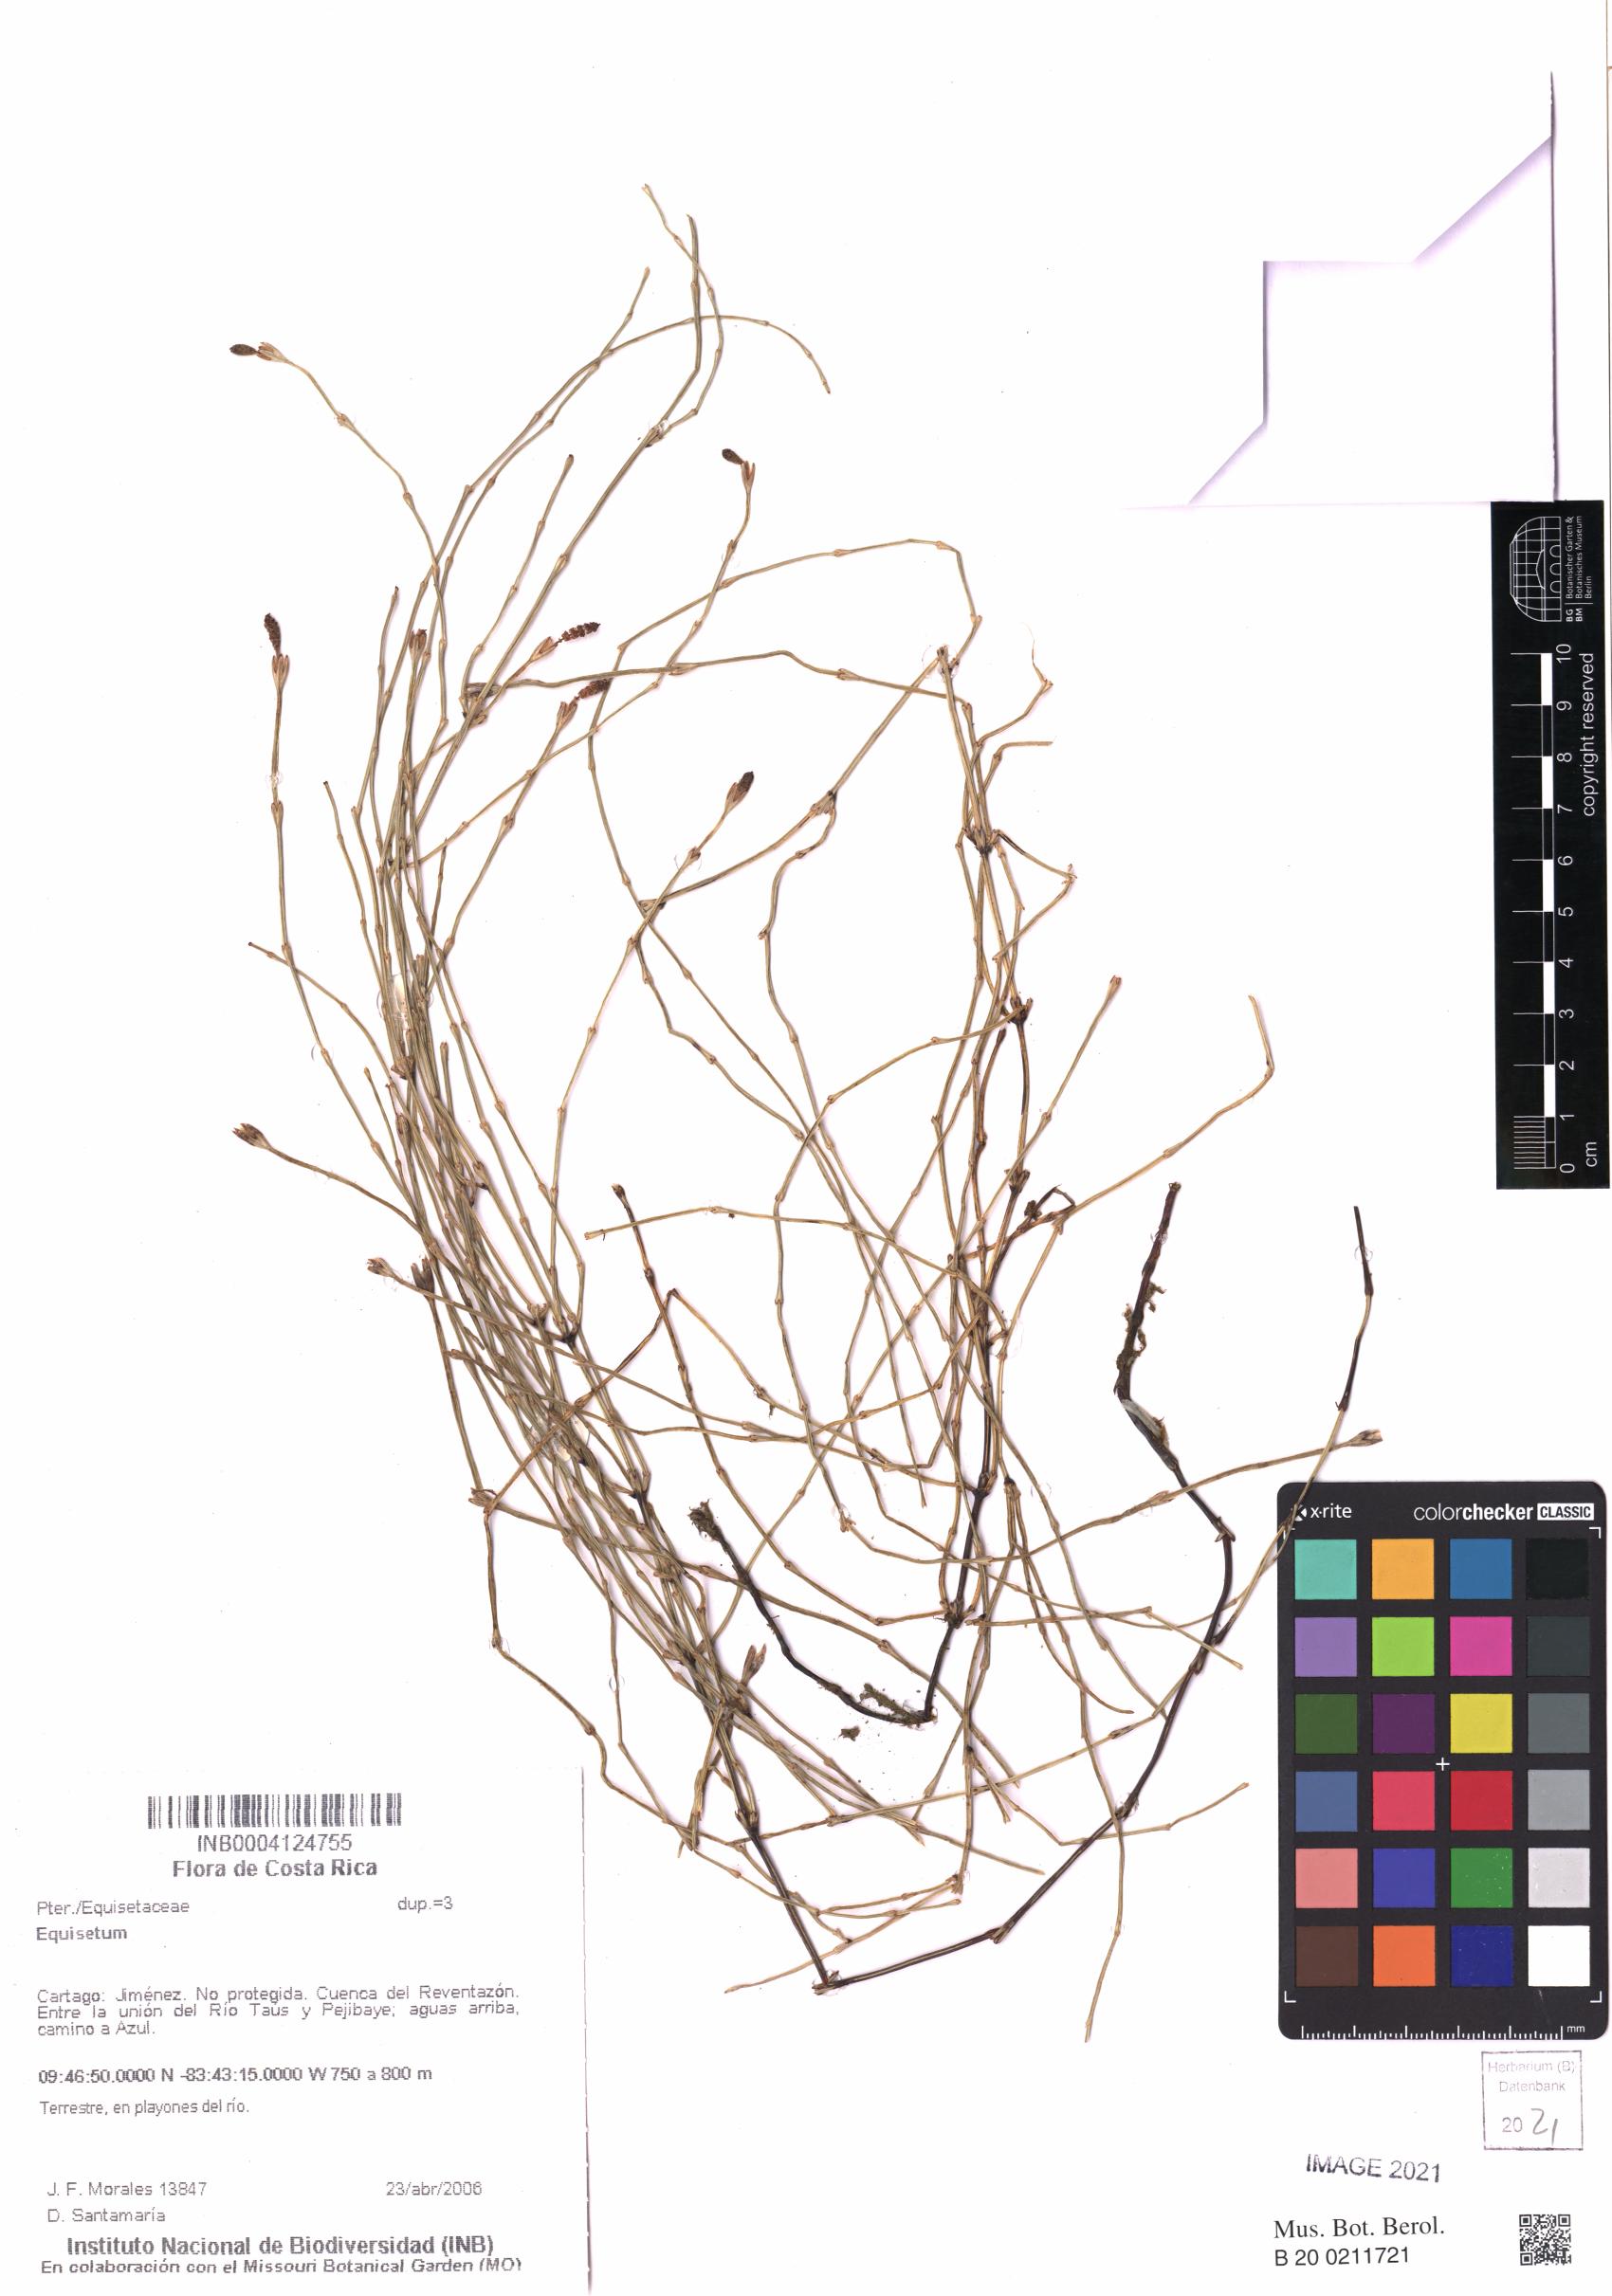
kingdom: Plantae
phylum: Tracheophyta
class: Polypodiopsida
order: Equisetales
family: Equisetaceae
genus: Equisetum
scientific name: Equisetum
